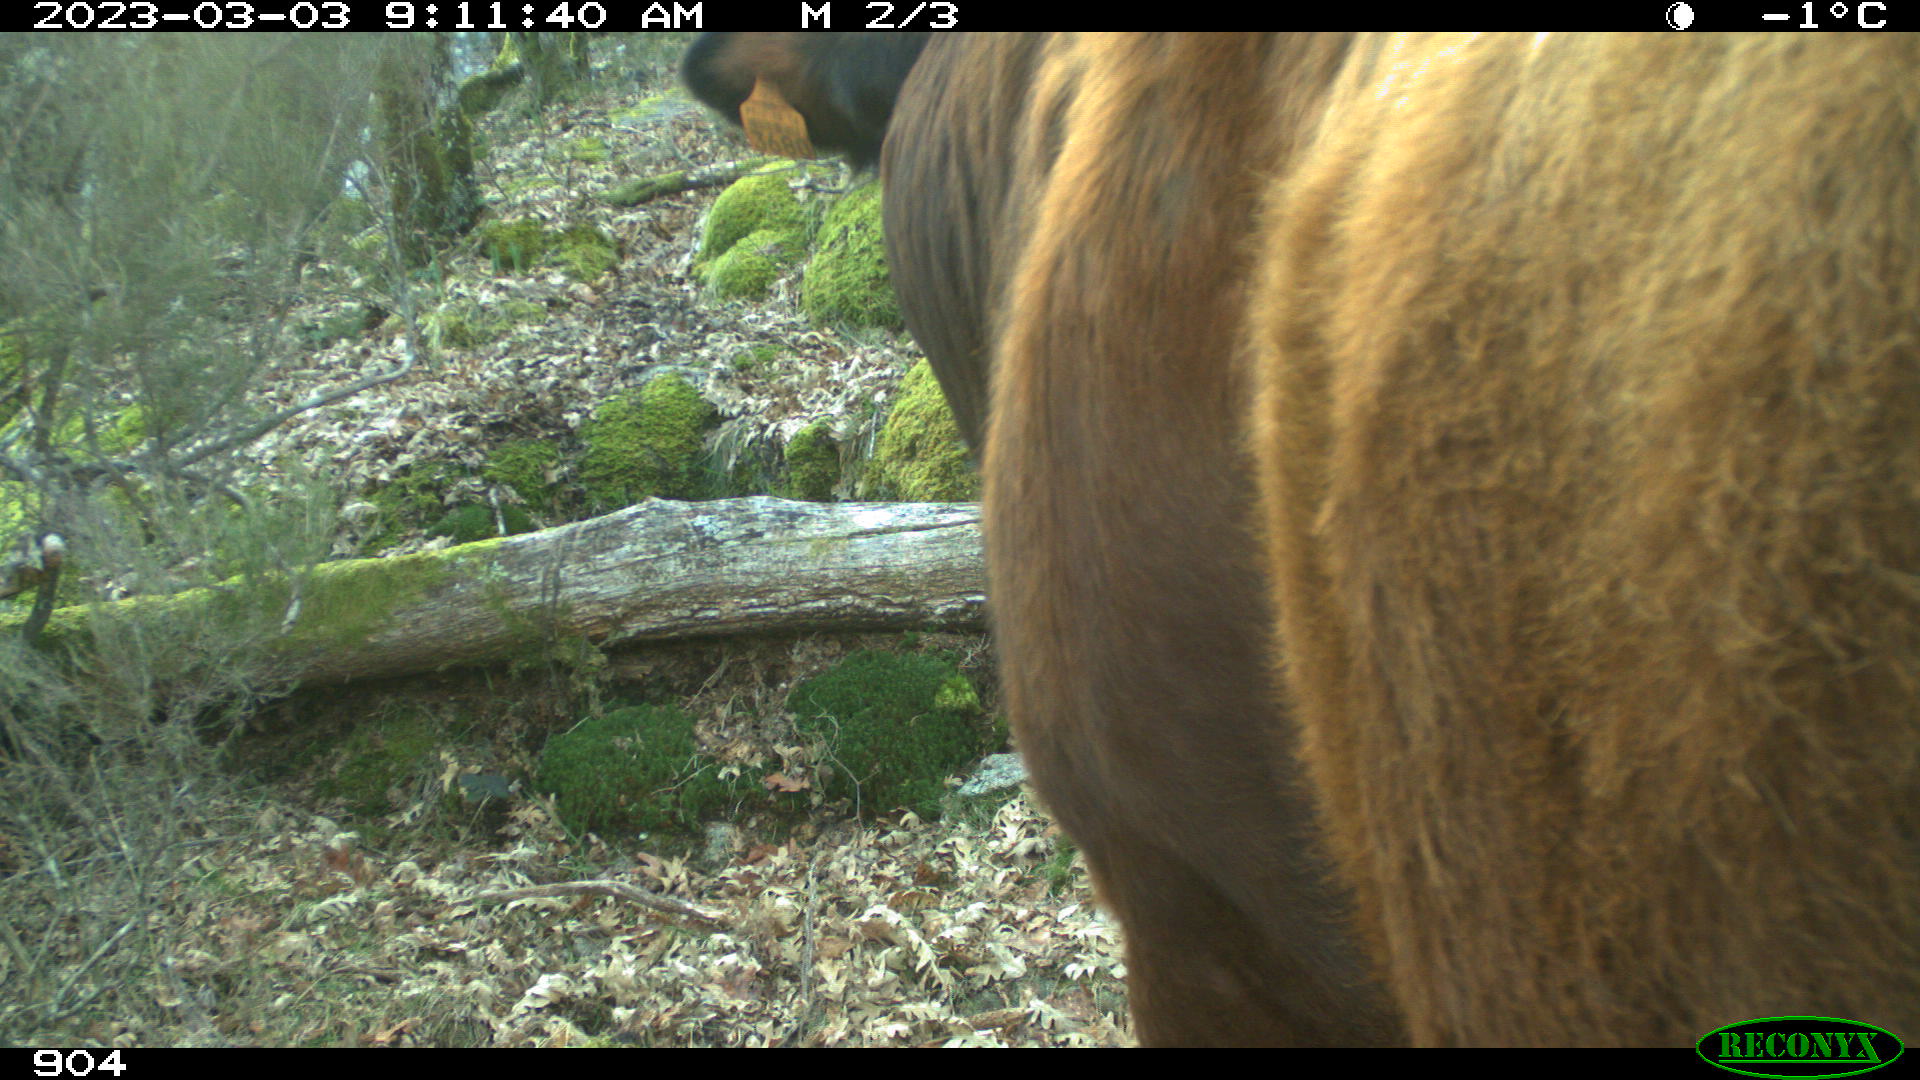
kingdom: Animalia
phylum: Chordata
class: Mammalia
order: Artiodactyla
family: Bovidae
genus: Bos
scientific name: Bos taurus
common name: Domesticated cattle
